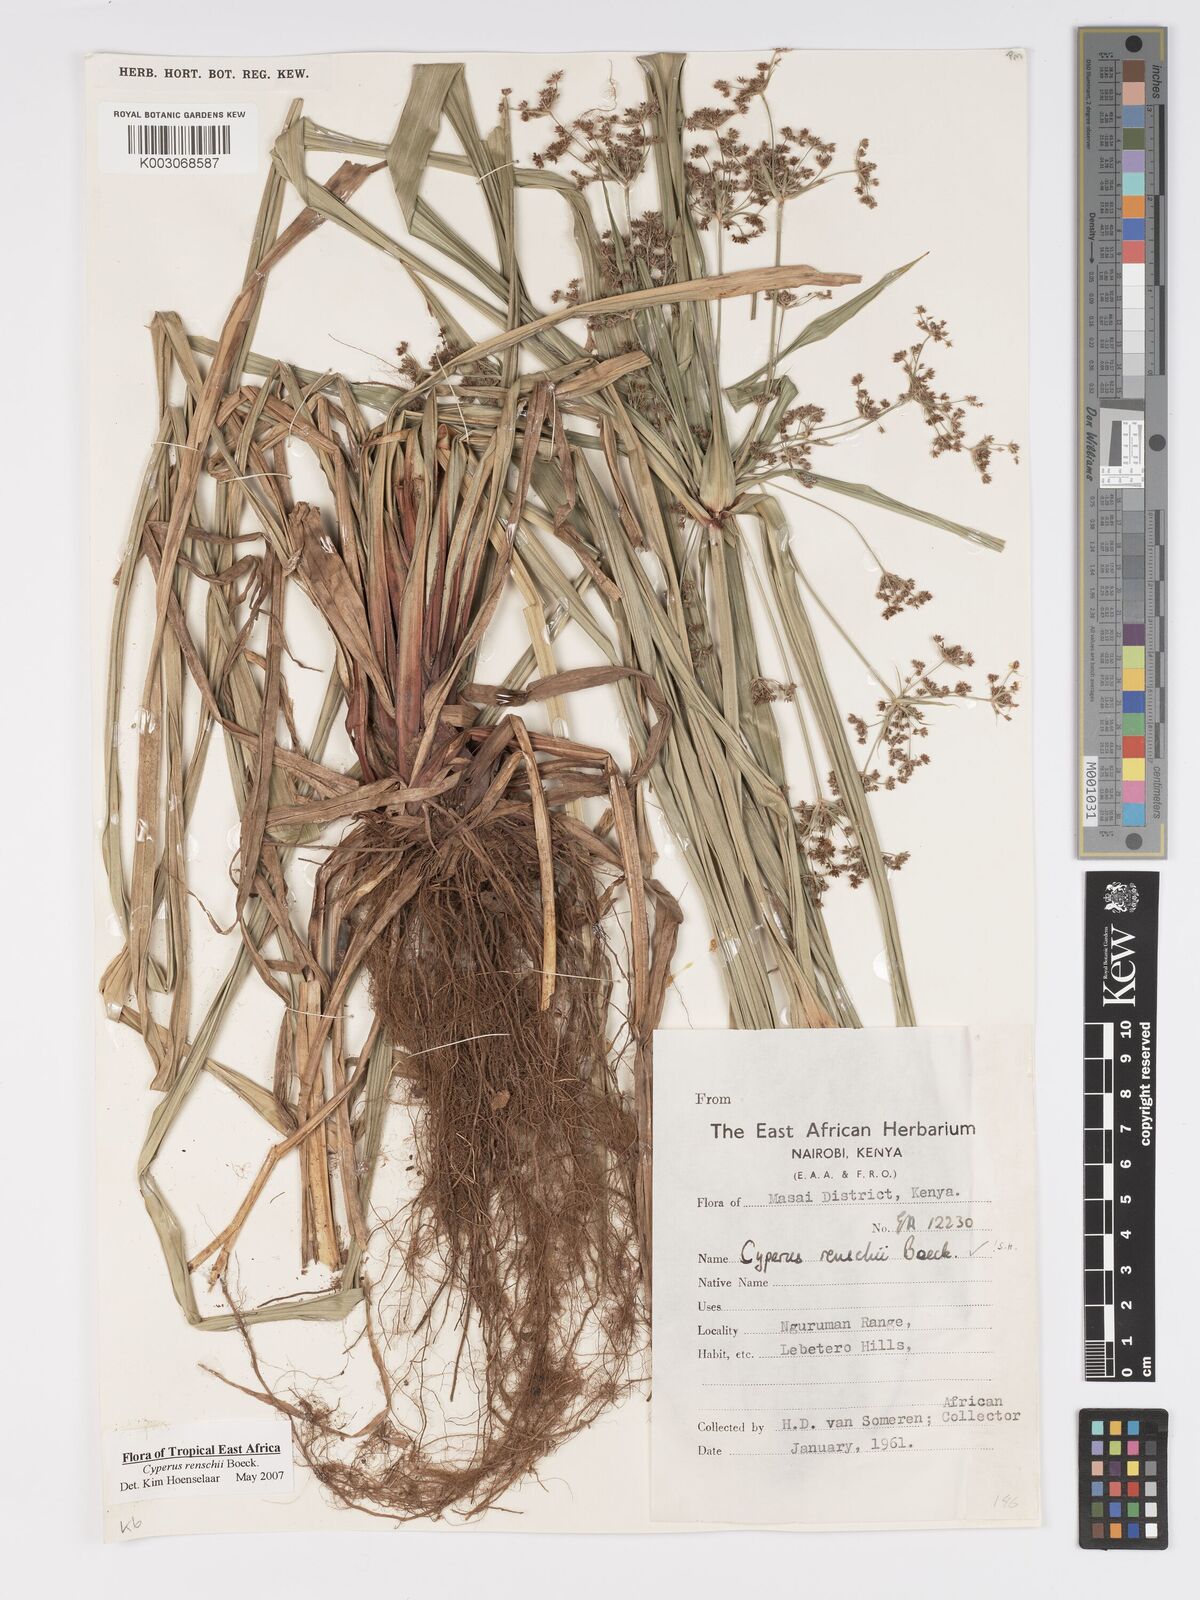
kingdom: Plantae
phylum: Tracheophyta
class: Liliopsida
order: Poales
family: Cyperaceae
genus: Cyperus
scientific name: Cyperus renschii
